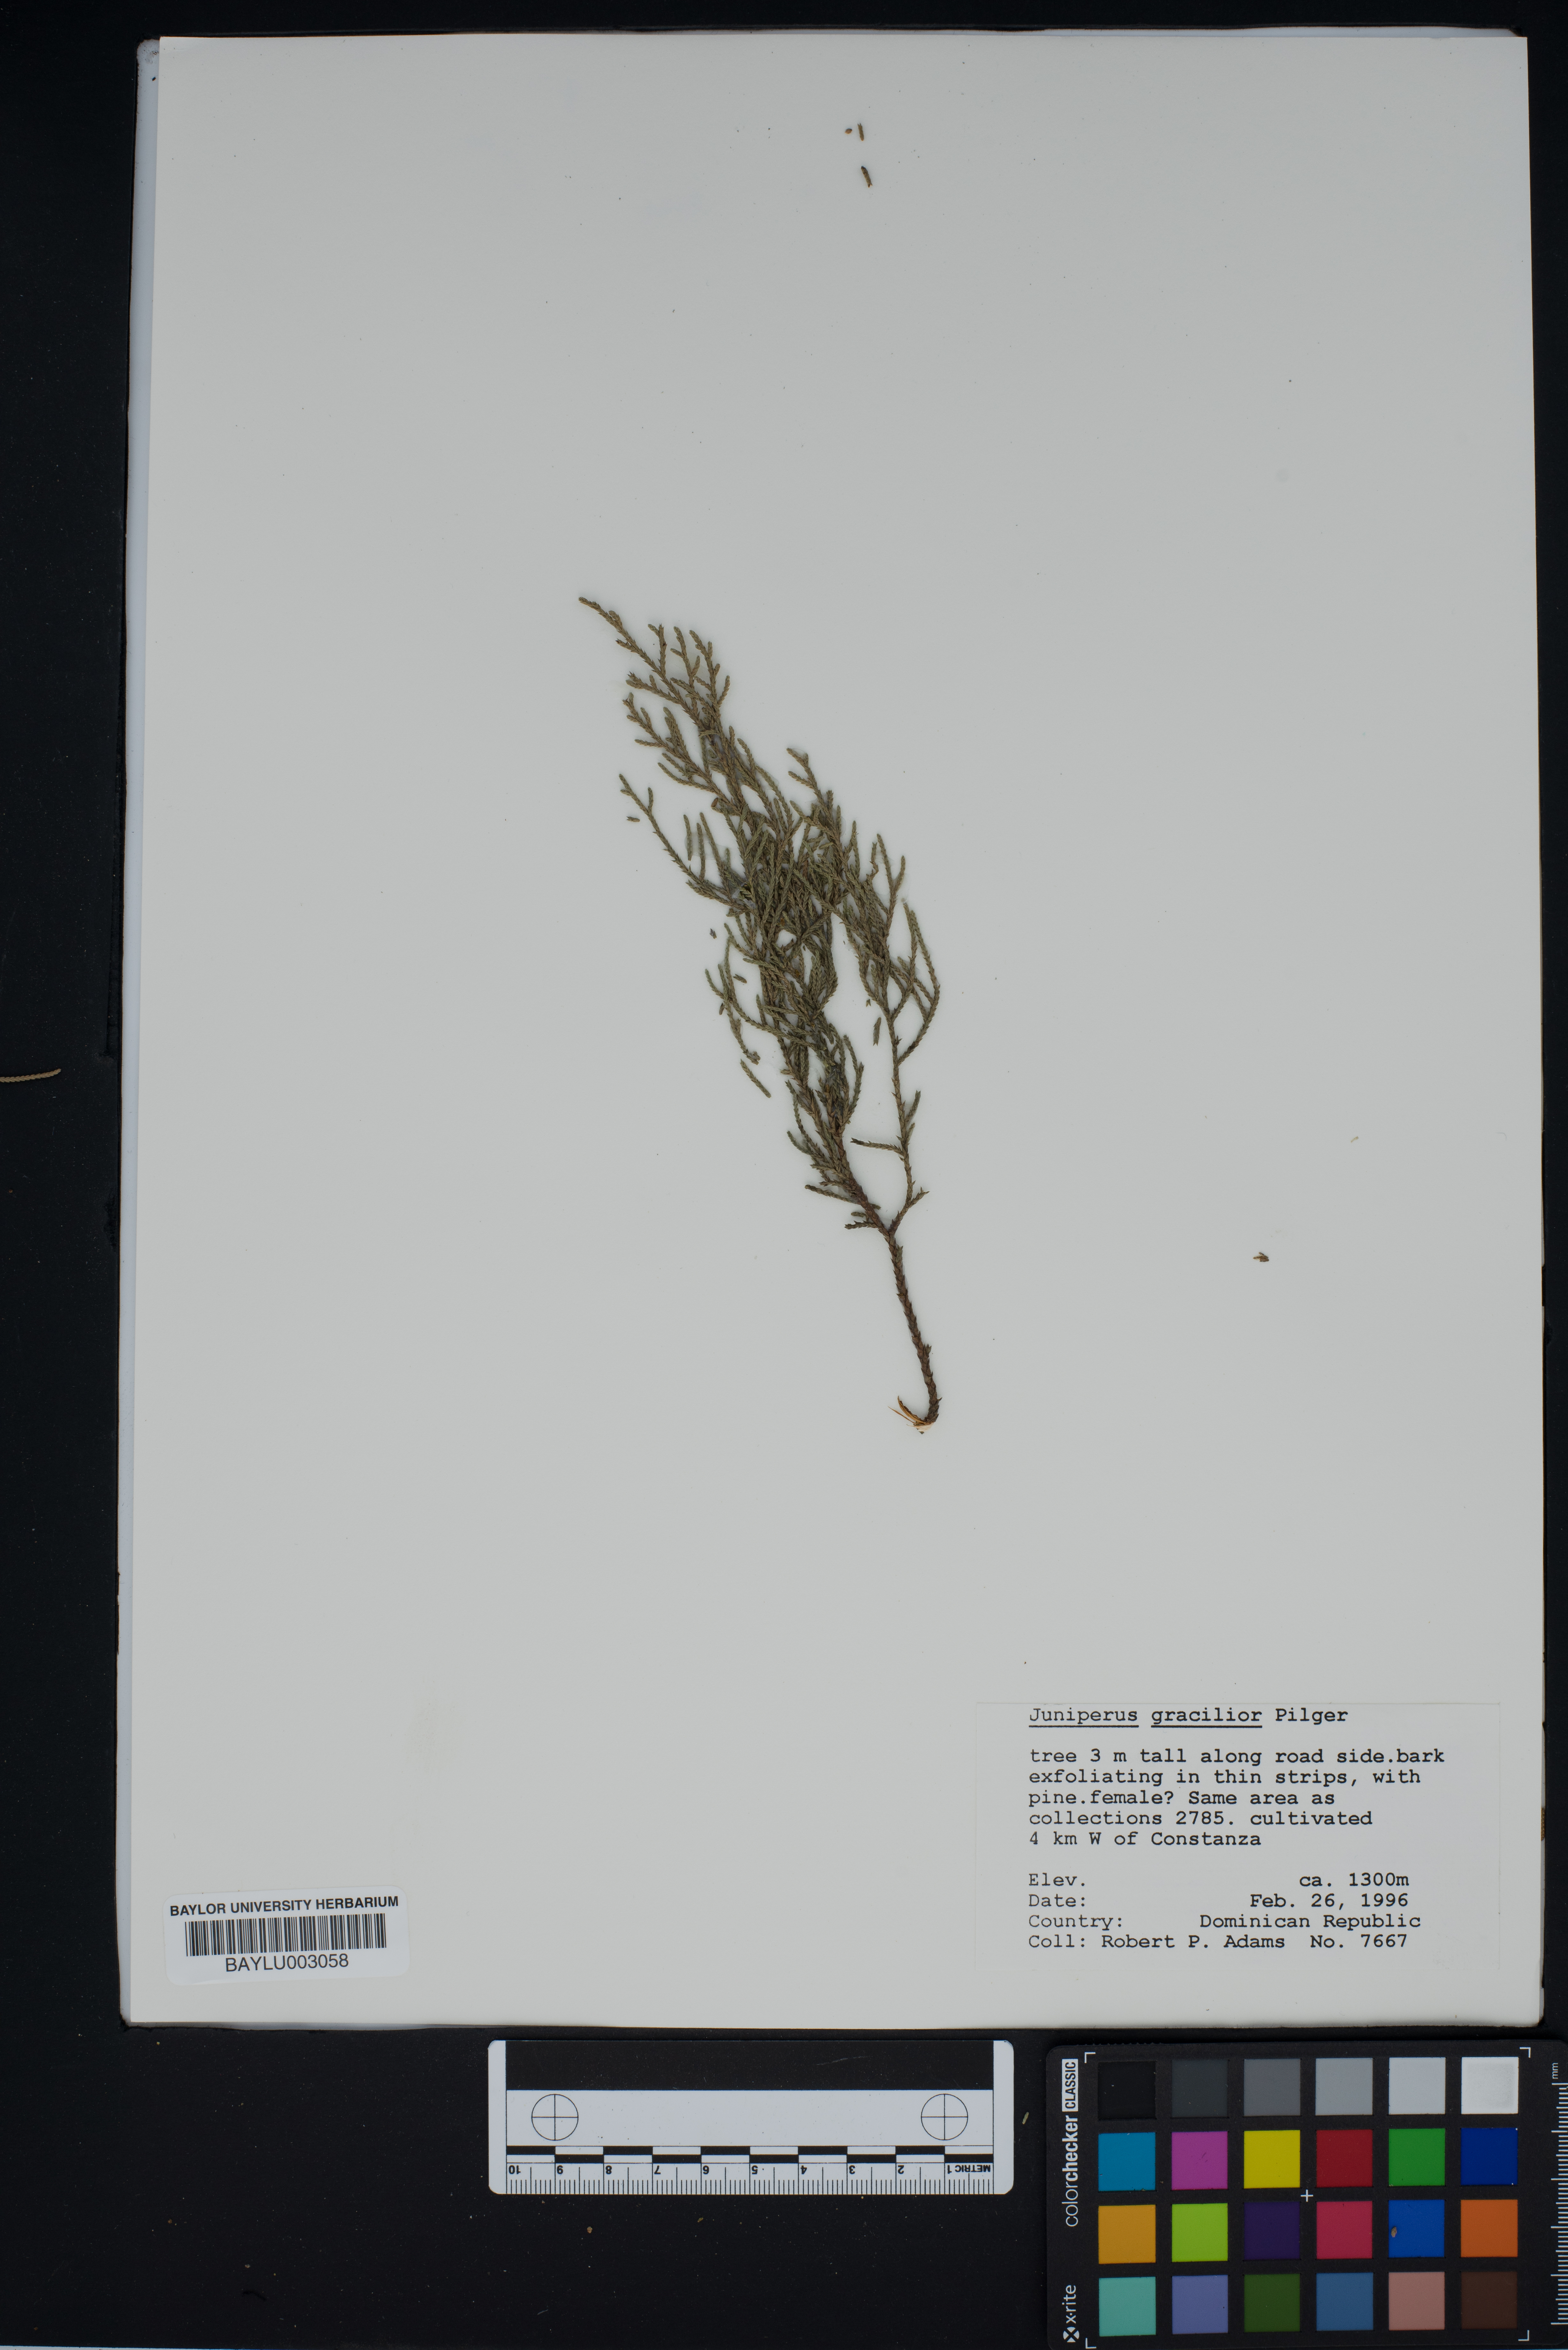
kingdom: Plantae
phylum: Tracheophyta
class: Pinopsida
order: Pinales
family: Cupressaceae
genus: Juniperus
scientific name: Juniperus gracilior
